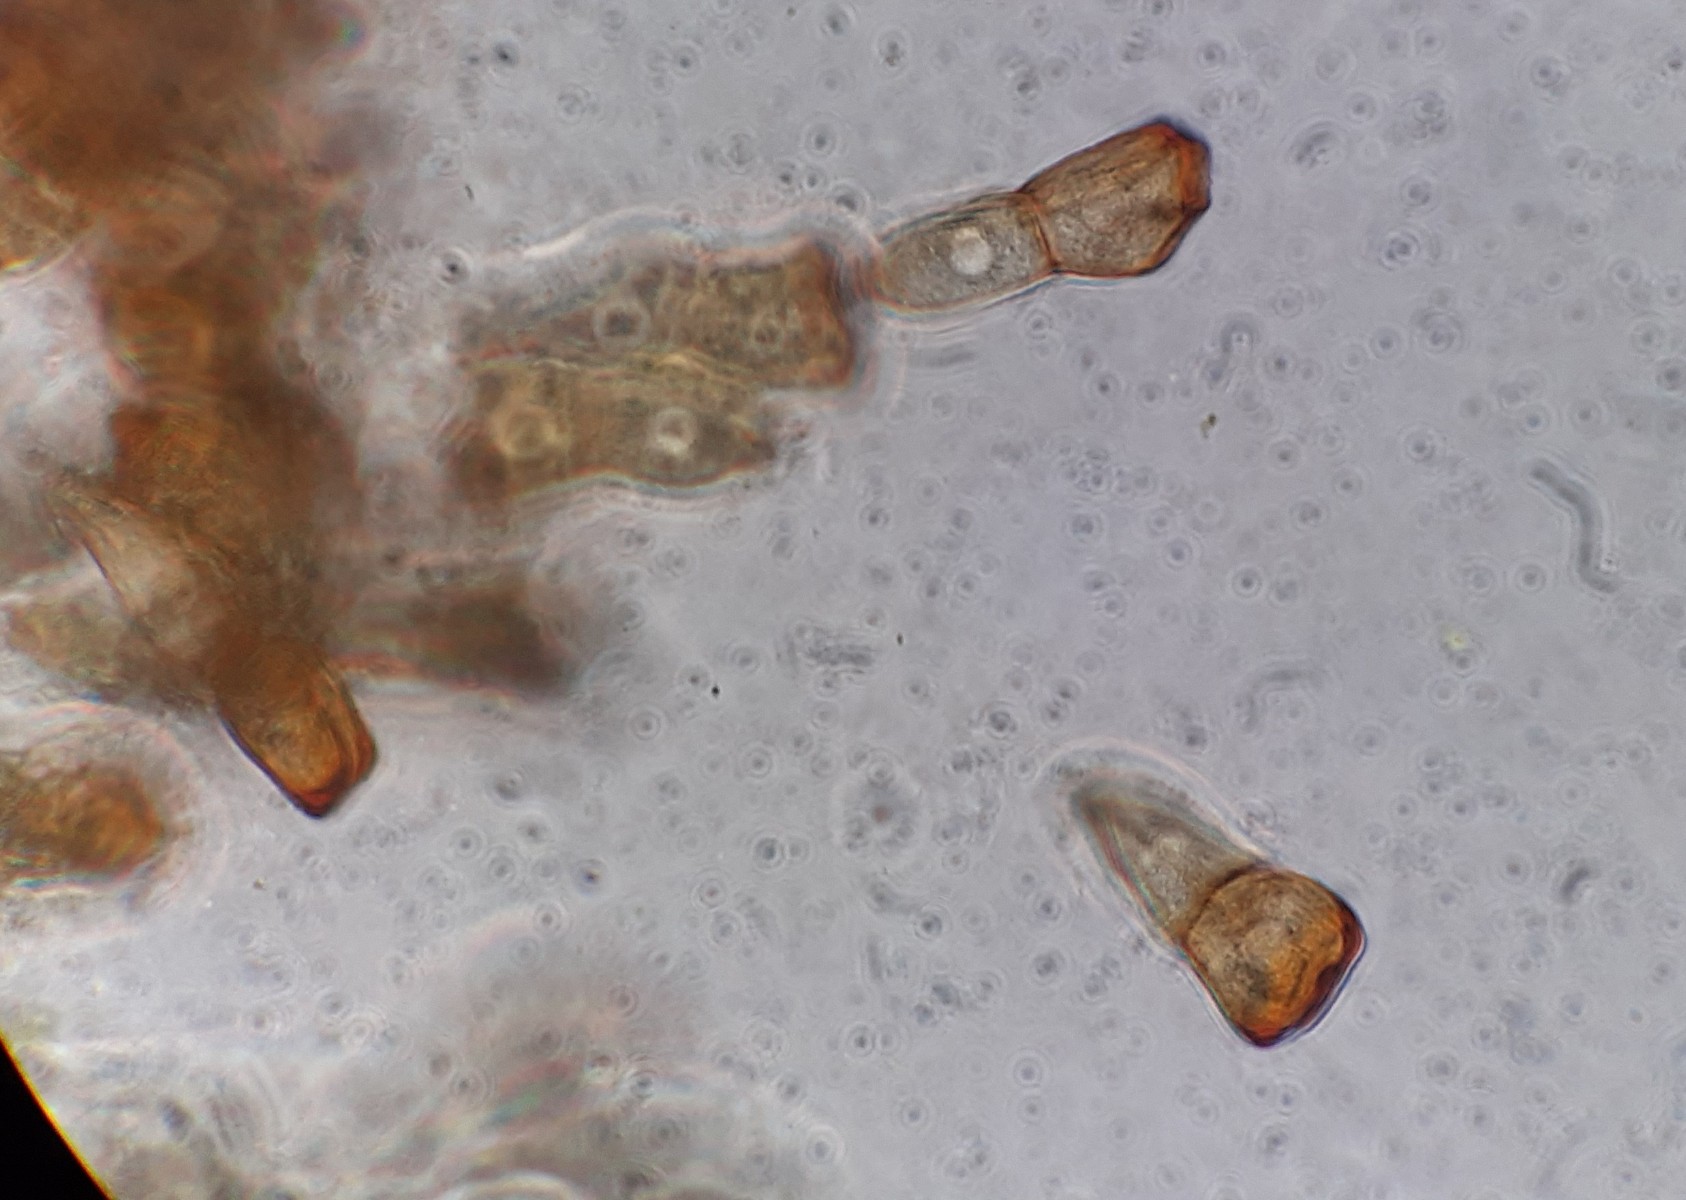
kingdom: Fungi
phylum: Basidiomycota
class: Pucciniomycetes
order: Pucciniales
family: Pucciniaceae
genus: Puccinia
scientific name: Puccinia recondita
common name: Brown rust of wheat
